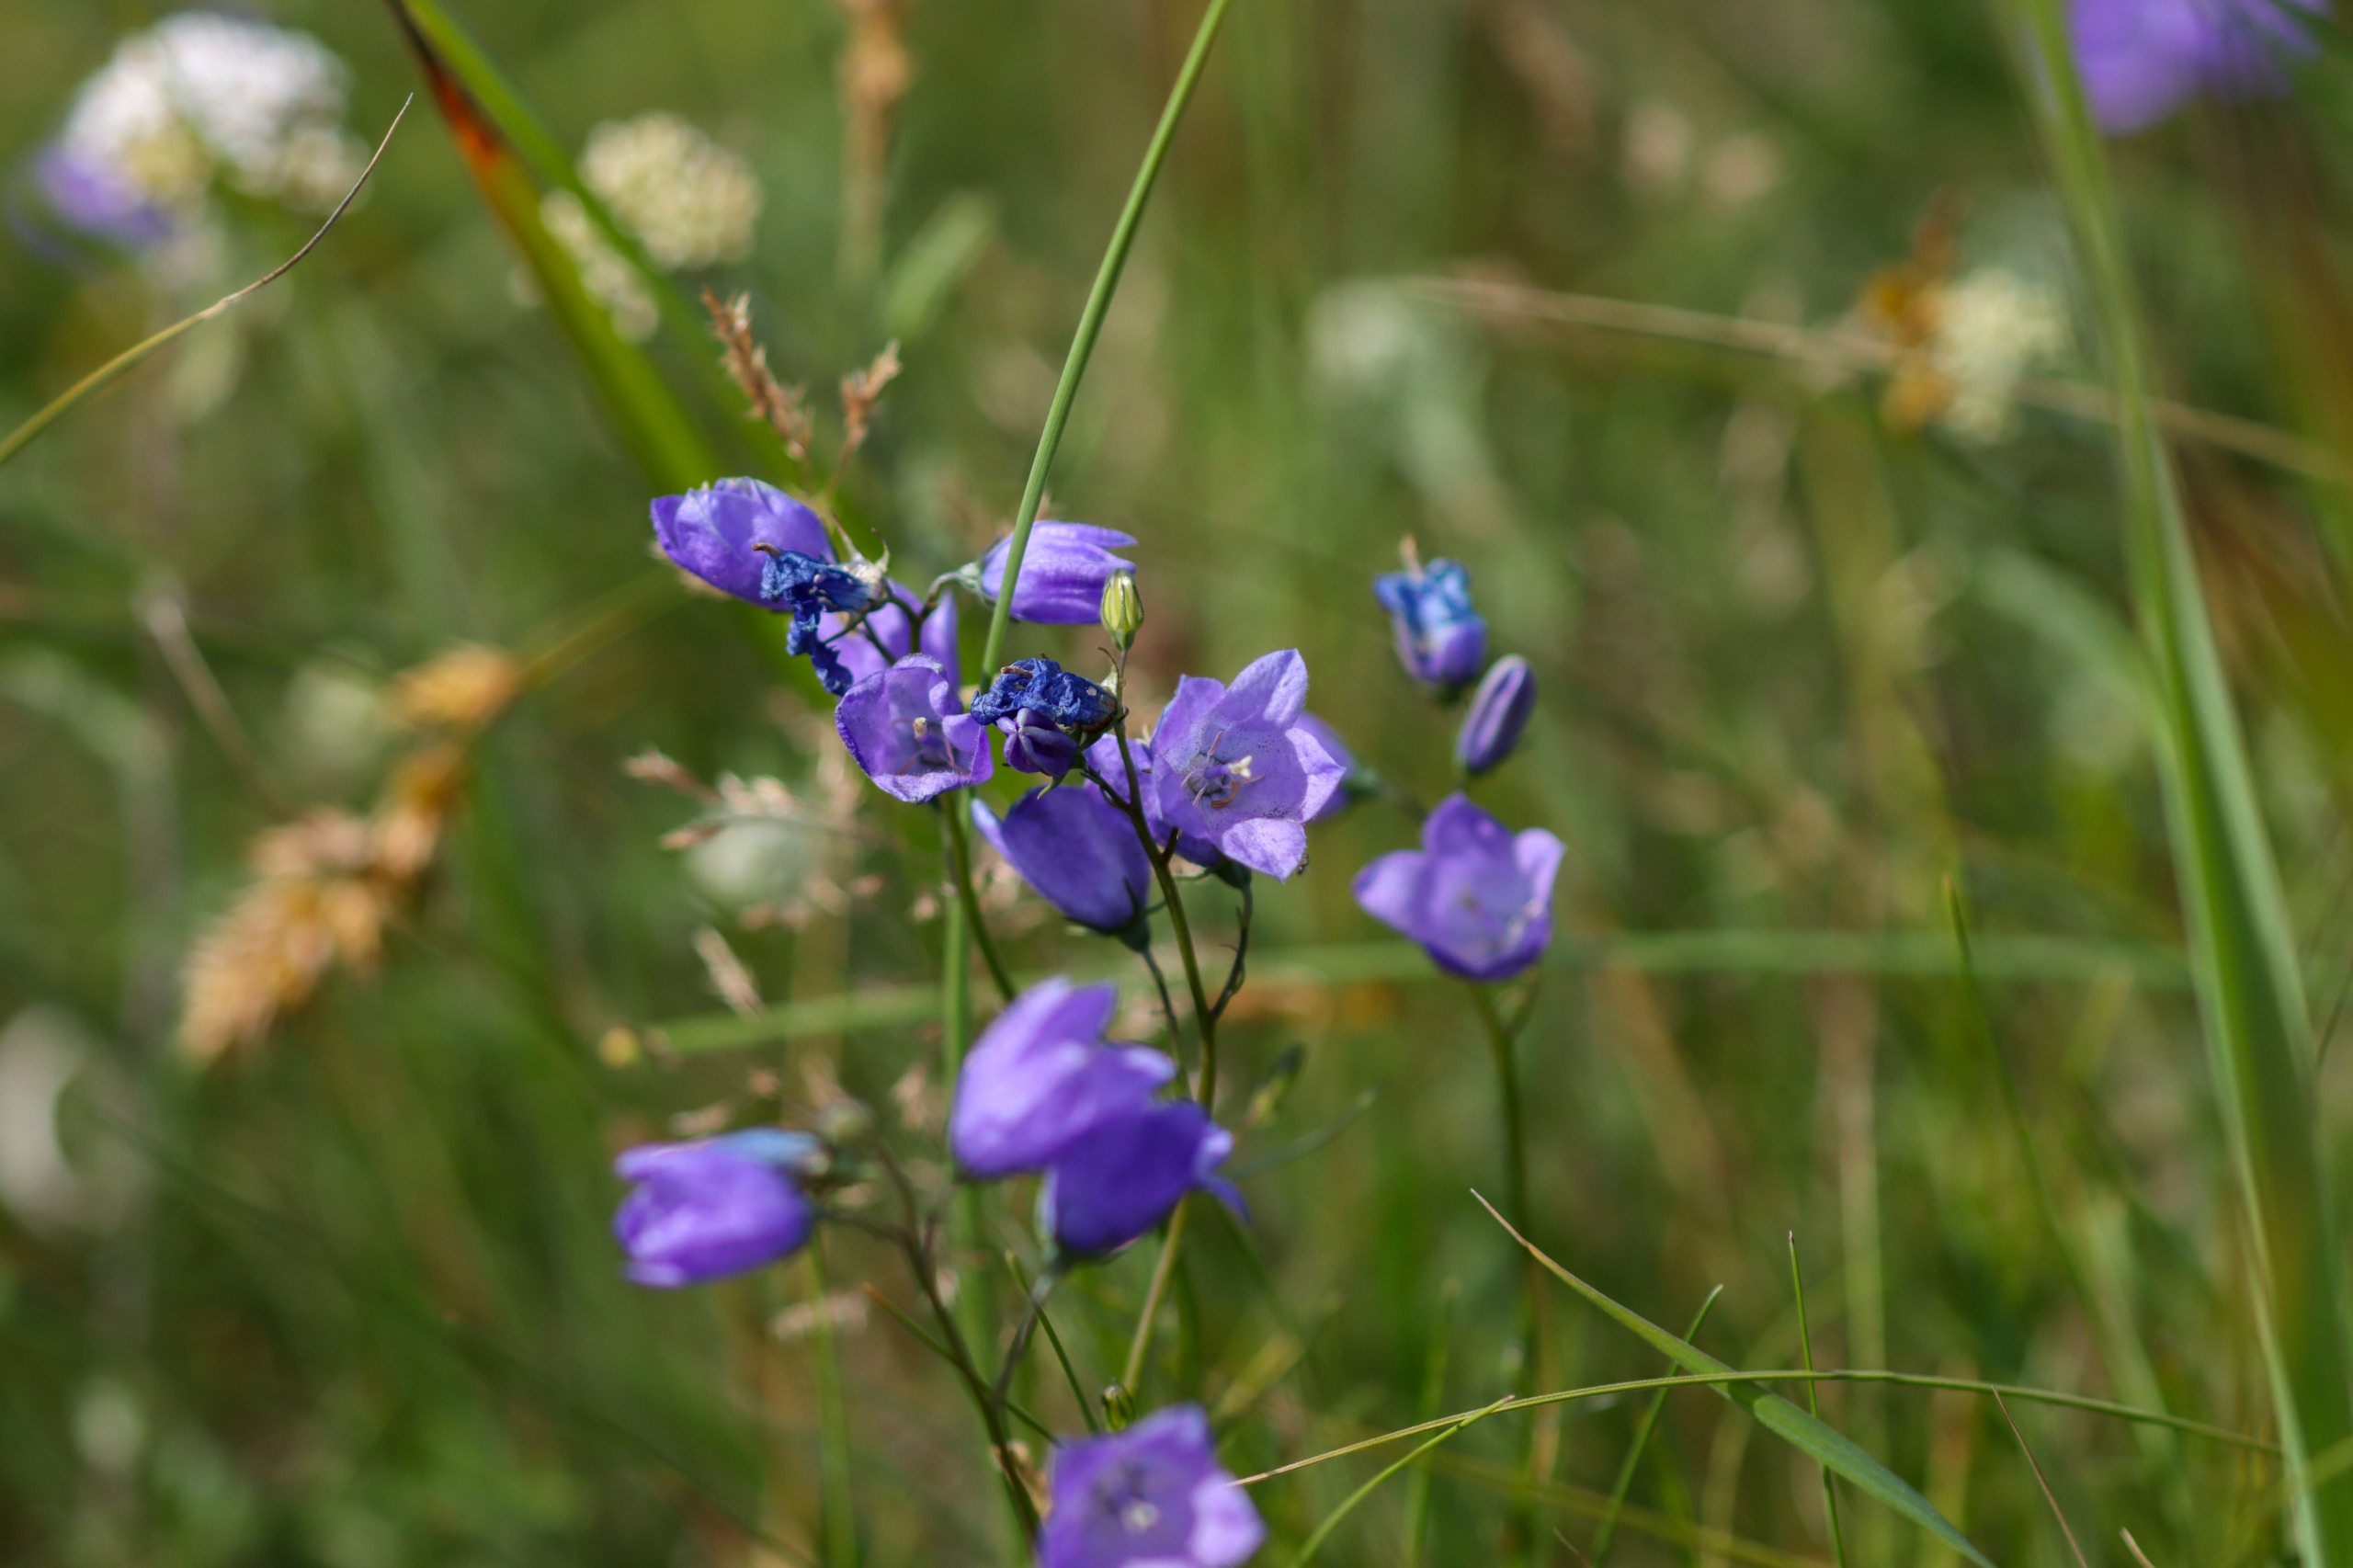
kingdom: Plantae
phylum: Tracheophyta
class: Magnoliopsida
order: Asterales
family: Campanulaceae
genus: Campanula
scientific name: Campanula rotundifolia
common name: Liden klokke
